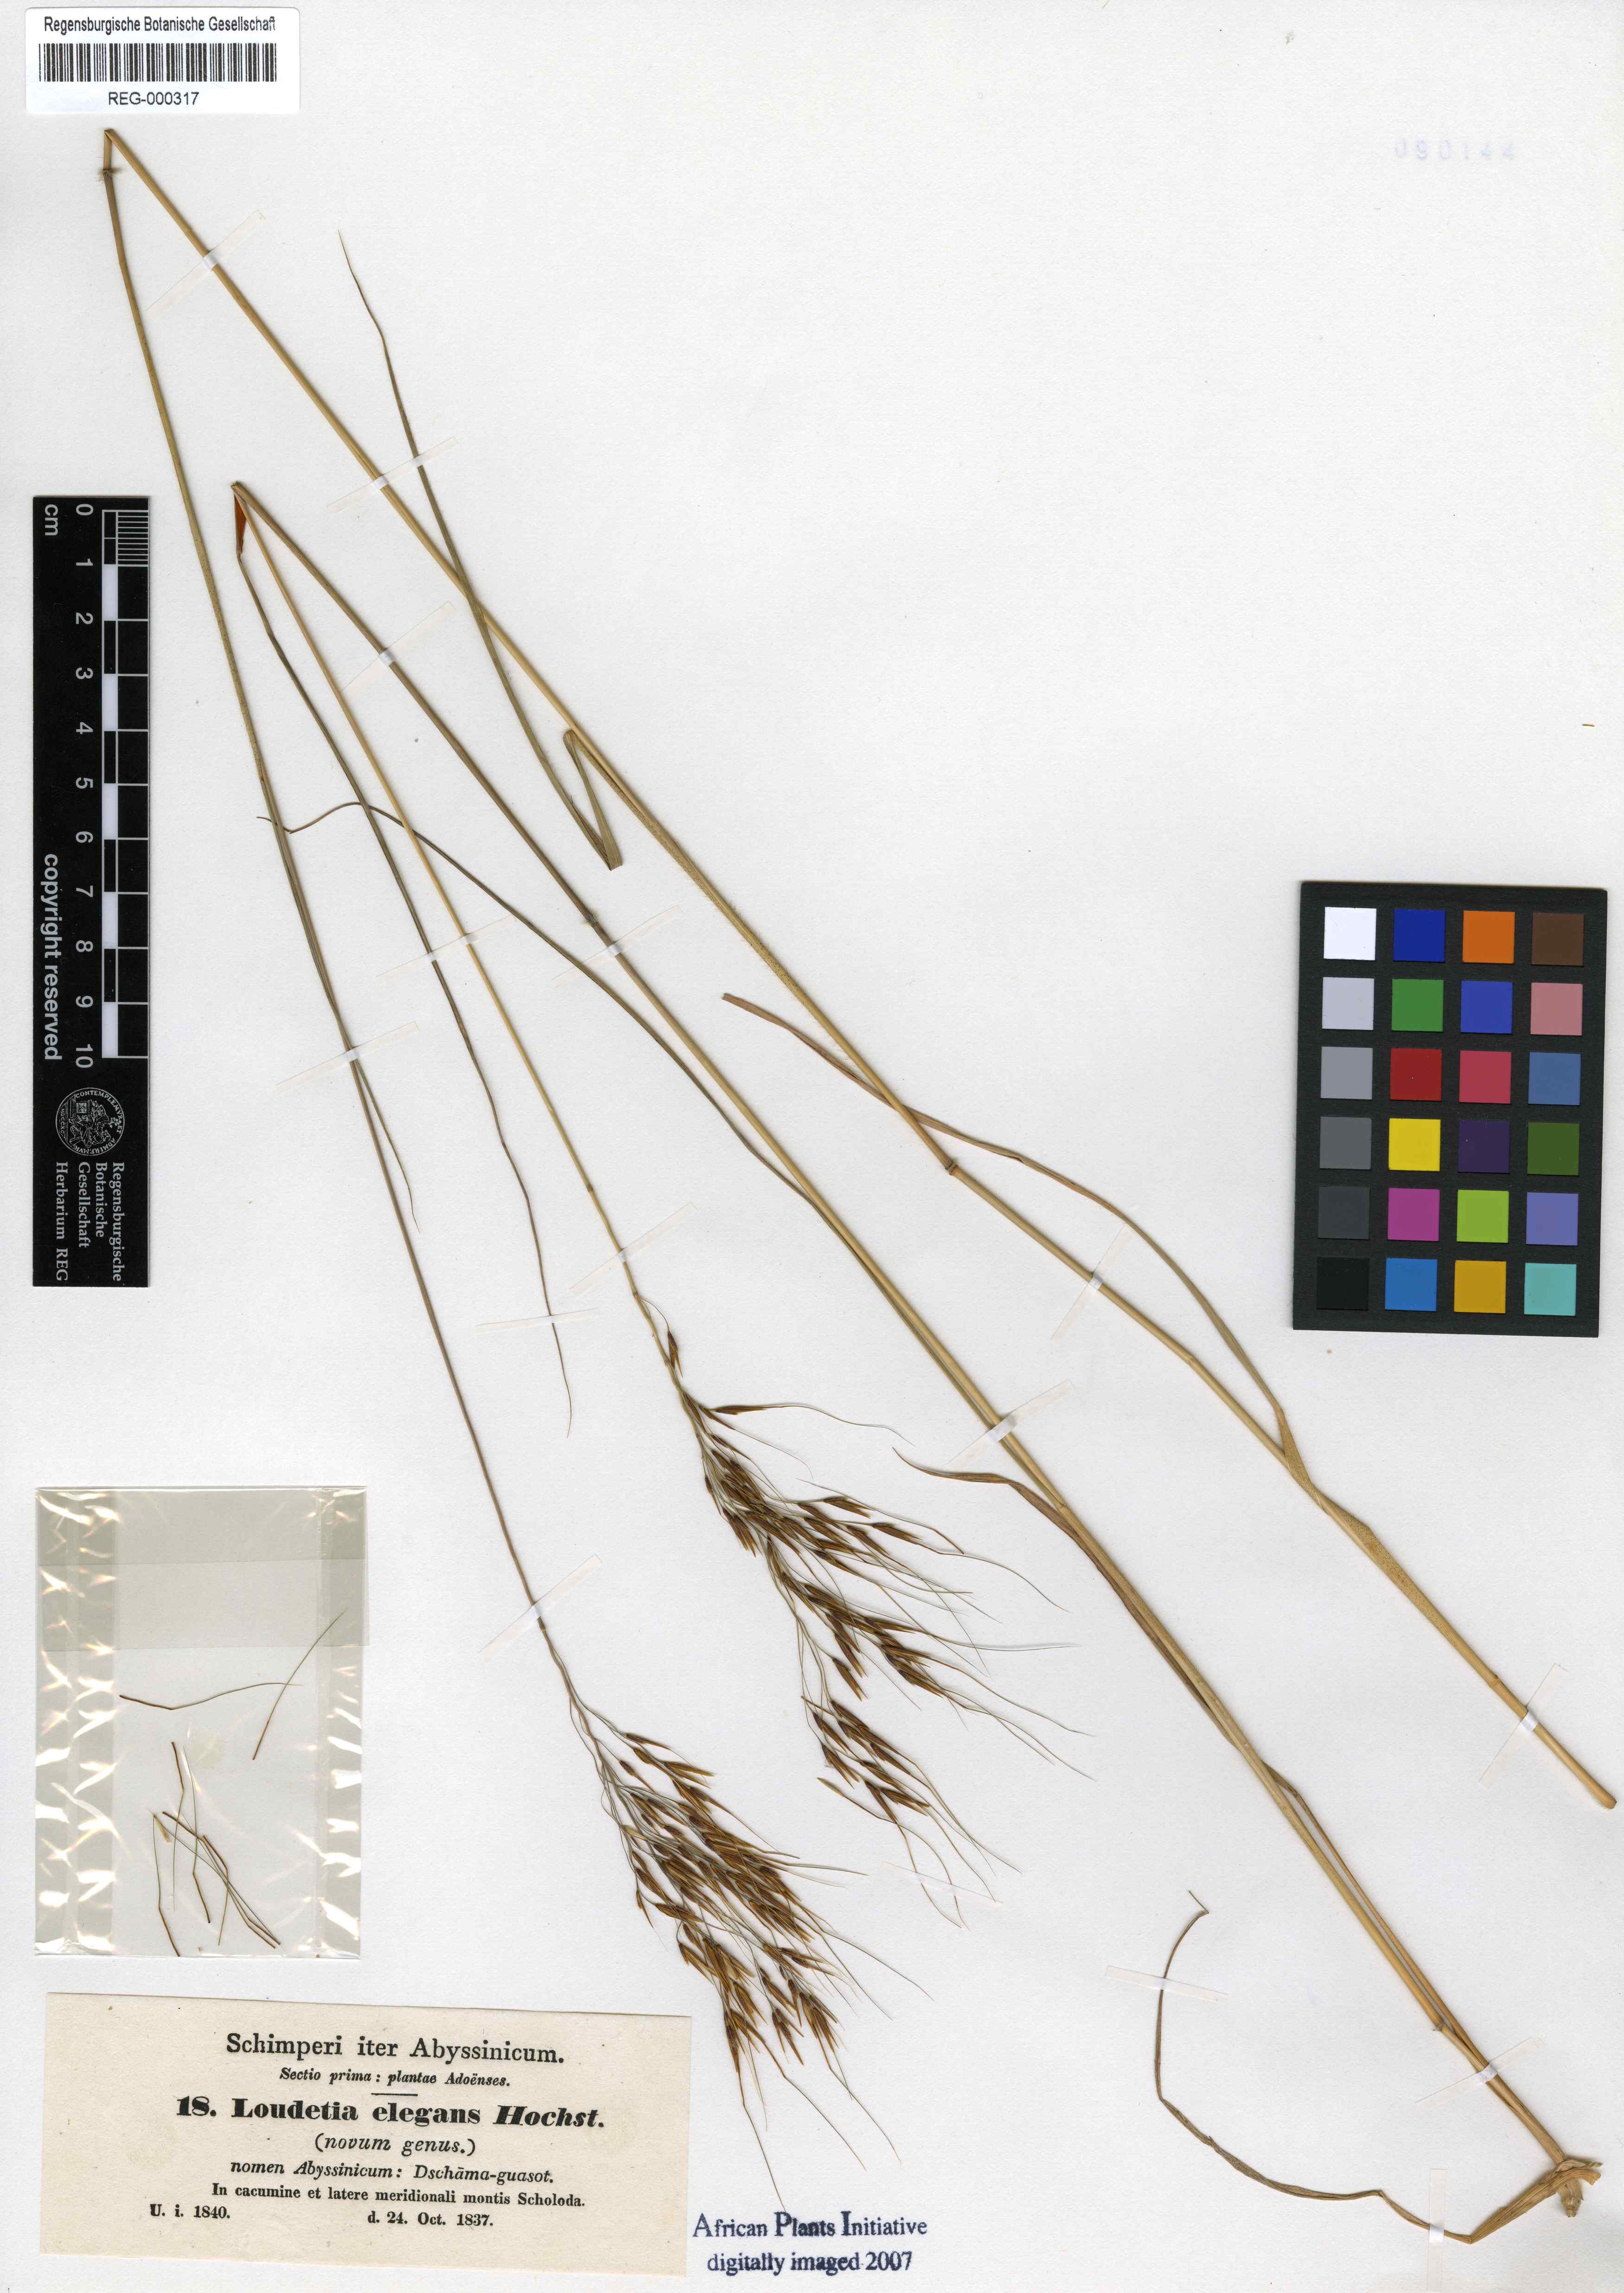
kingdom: Plantae
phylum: Tracheophyta
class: Liliopsida
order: Poales
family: Poaceae
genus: Loudetia
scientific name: Loudetia elegans
